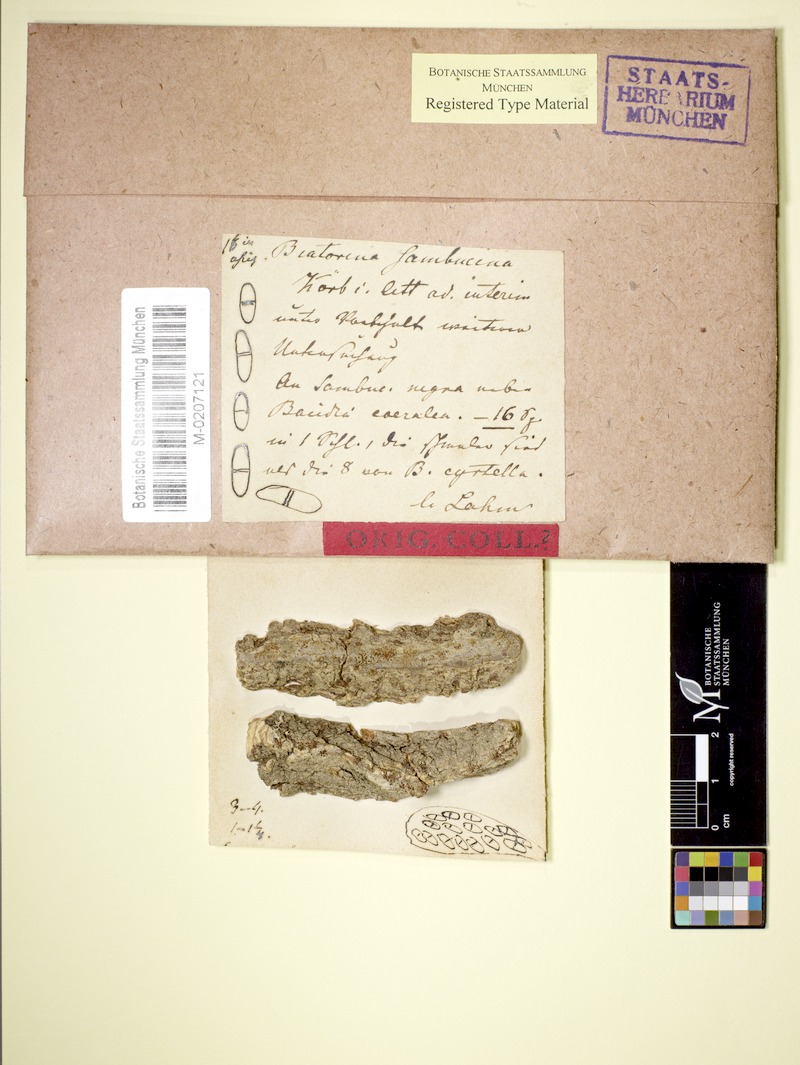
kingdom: Fungi
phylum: Ascomycota
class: Lecanoromycetes
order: Lecanorales
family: Ramalinaceae
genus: Lecania
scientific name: Lecania cyrtella
